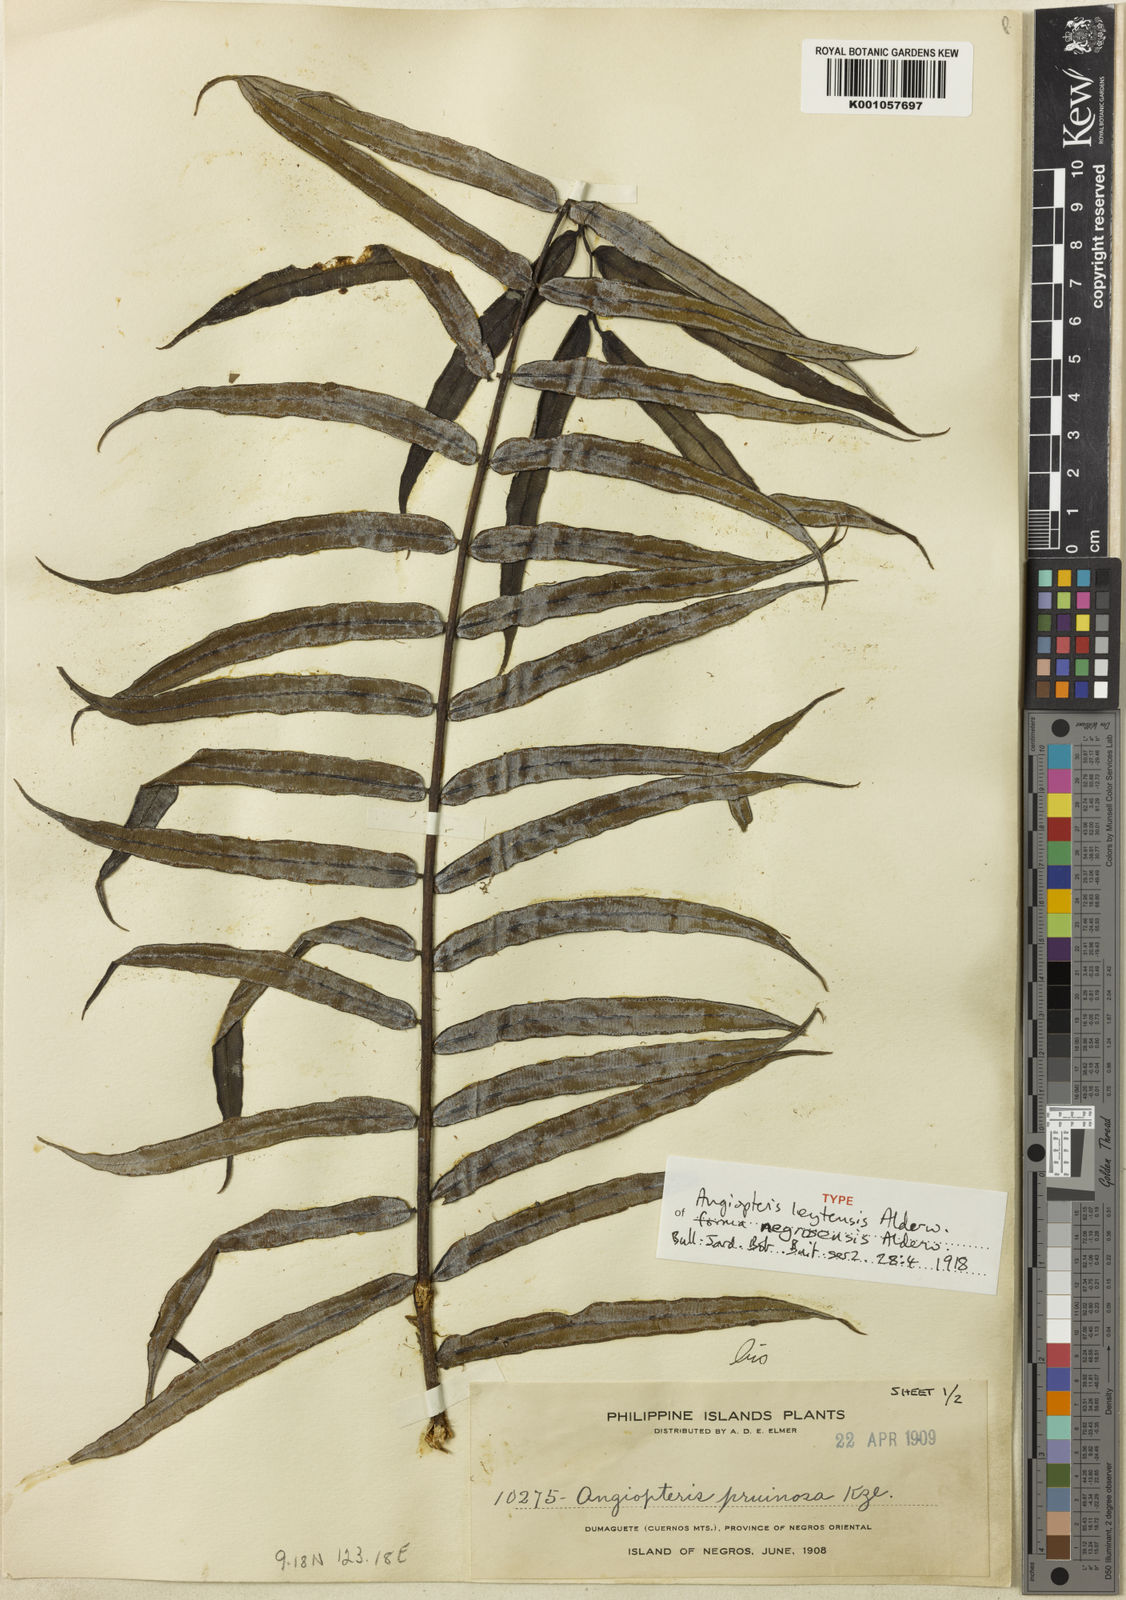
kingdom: Plantae
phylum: Tracheophyta
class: Polypodiopsida
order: Marattiales
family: Marattiaceae
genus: Angiopteris
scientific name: Angiopteris pruinosa
